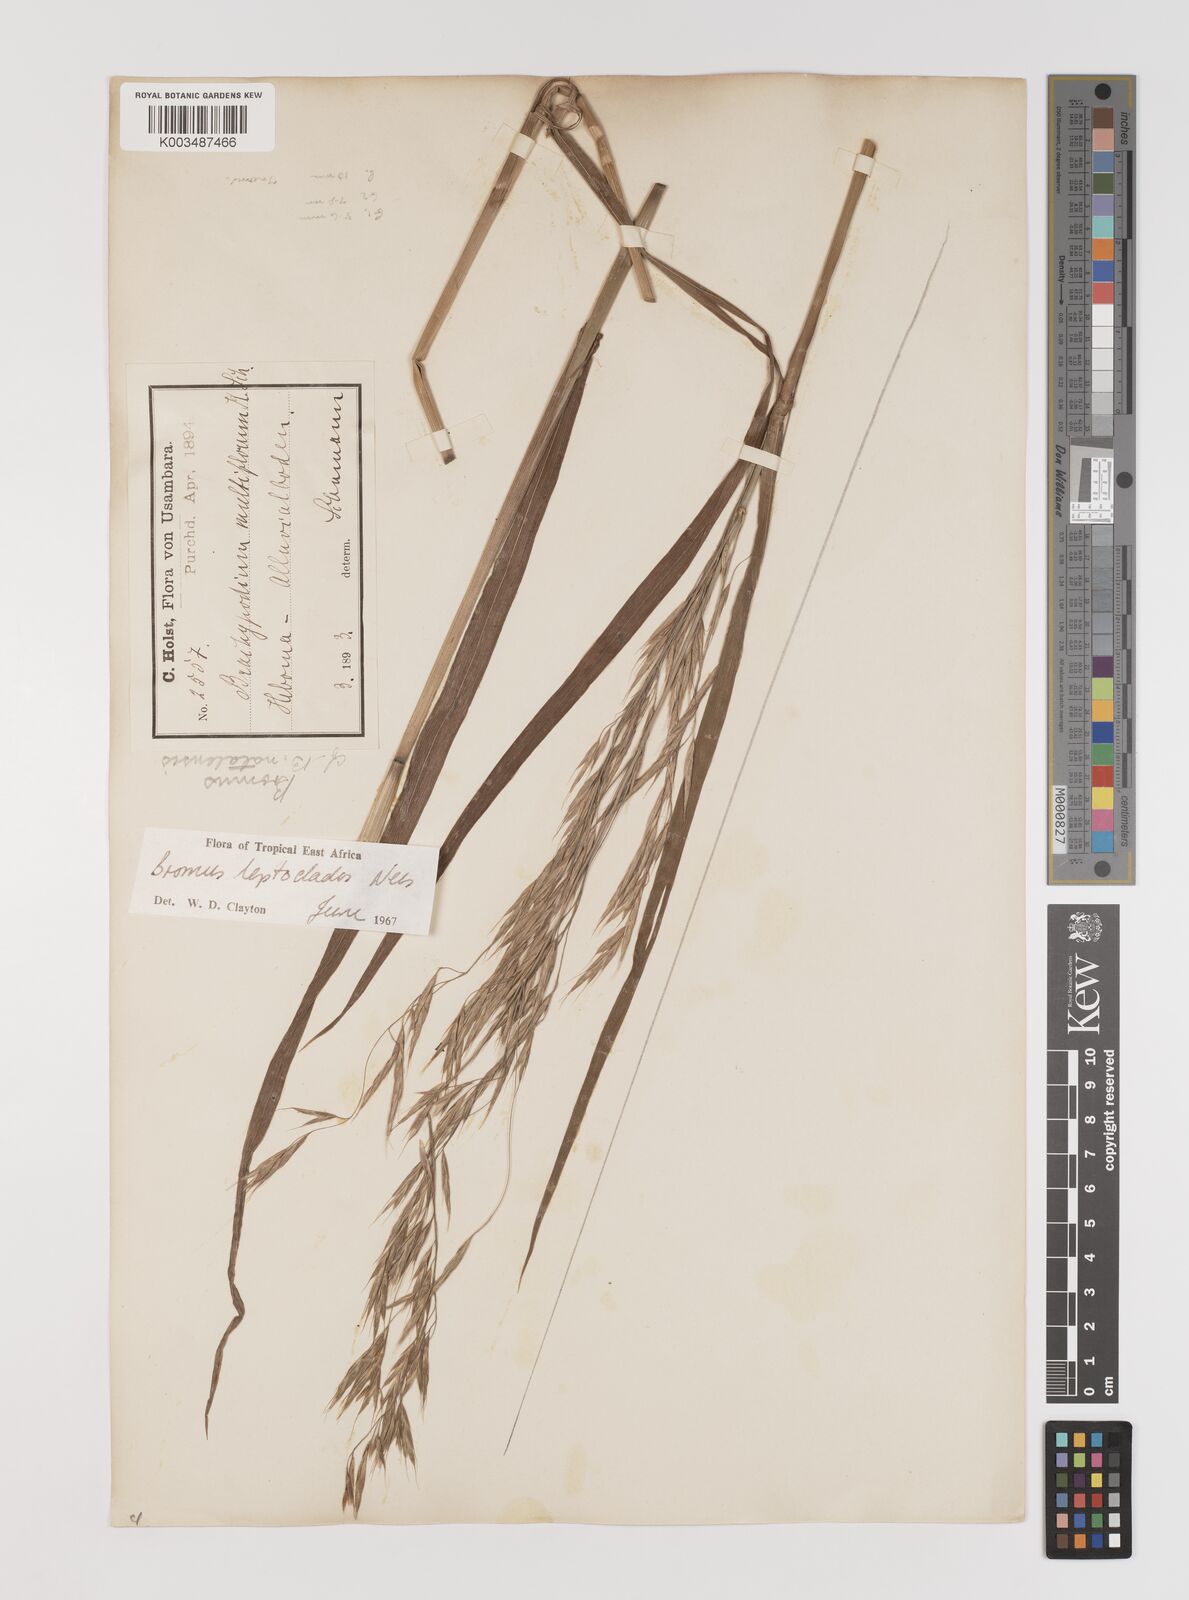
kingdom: Plantae
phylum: Tracheophyta
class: Liliopsida
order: Poales
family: Poaceae
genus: Bromus
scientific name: Bromus leptoclados
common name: Mountain bromegrass
